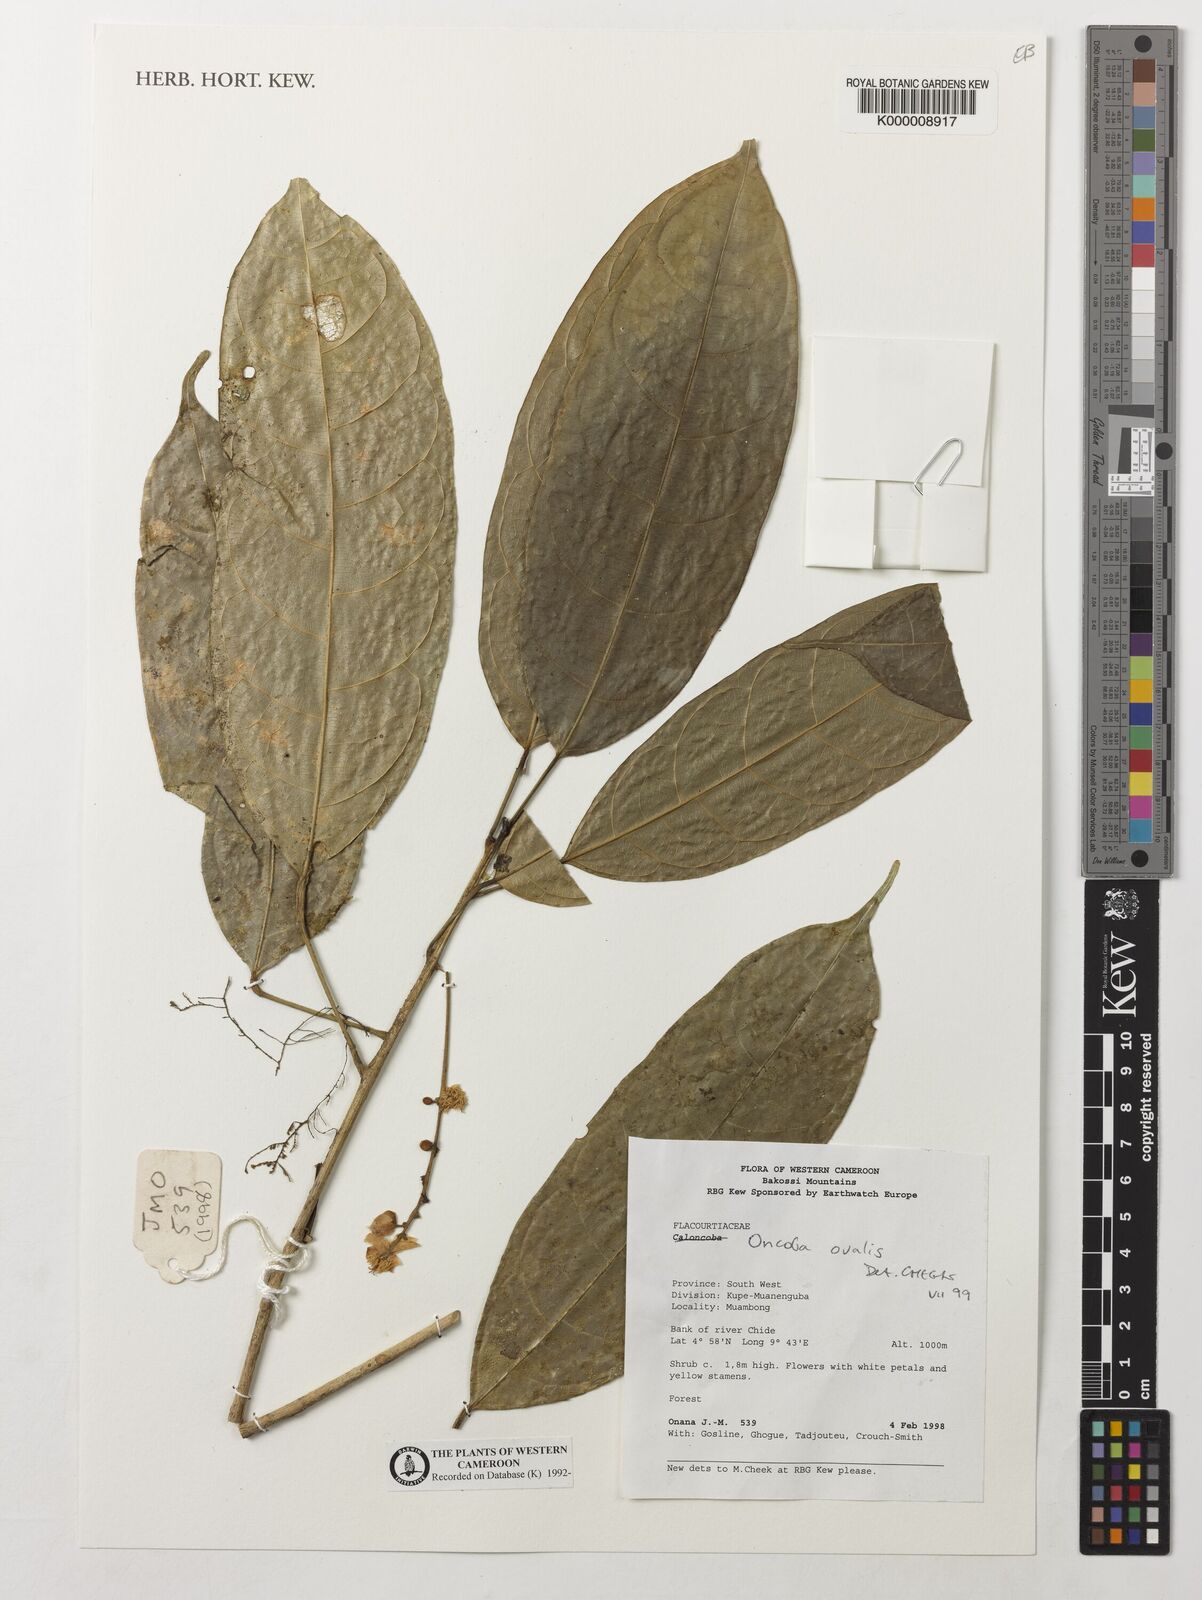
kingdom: Plantae
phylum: Tracheophyta
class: Magnoliopsida
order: Malpighiales
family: Achariaceae
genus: Camptostylus
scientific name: Camptostylus ovalis
